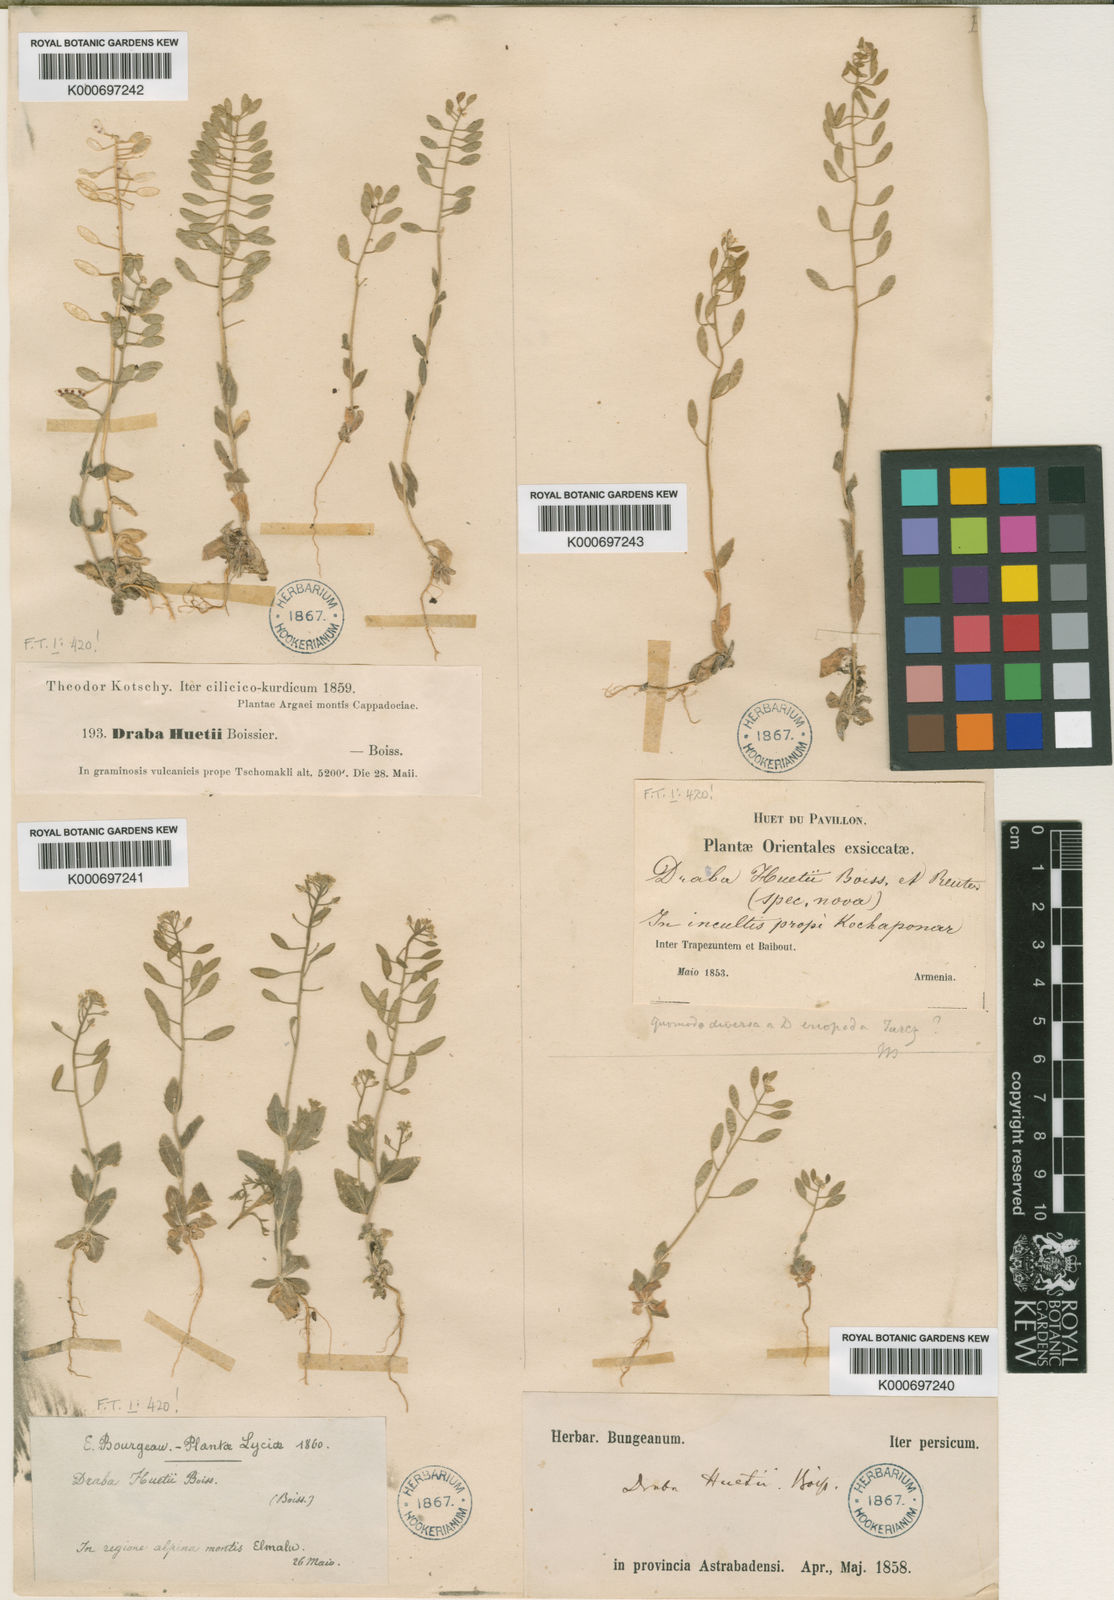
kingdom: Plantae
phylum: Tracheophyta
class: Magnoliopsida
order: Brassicales
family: Brassicaceae
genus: Draba
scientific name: Draba huetii
